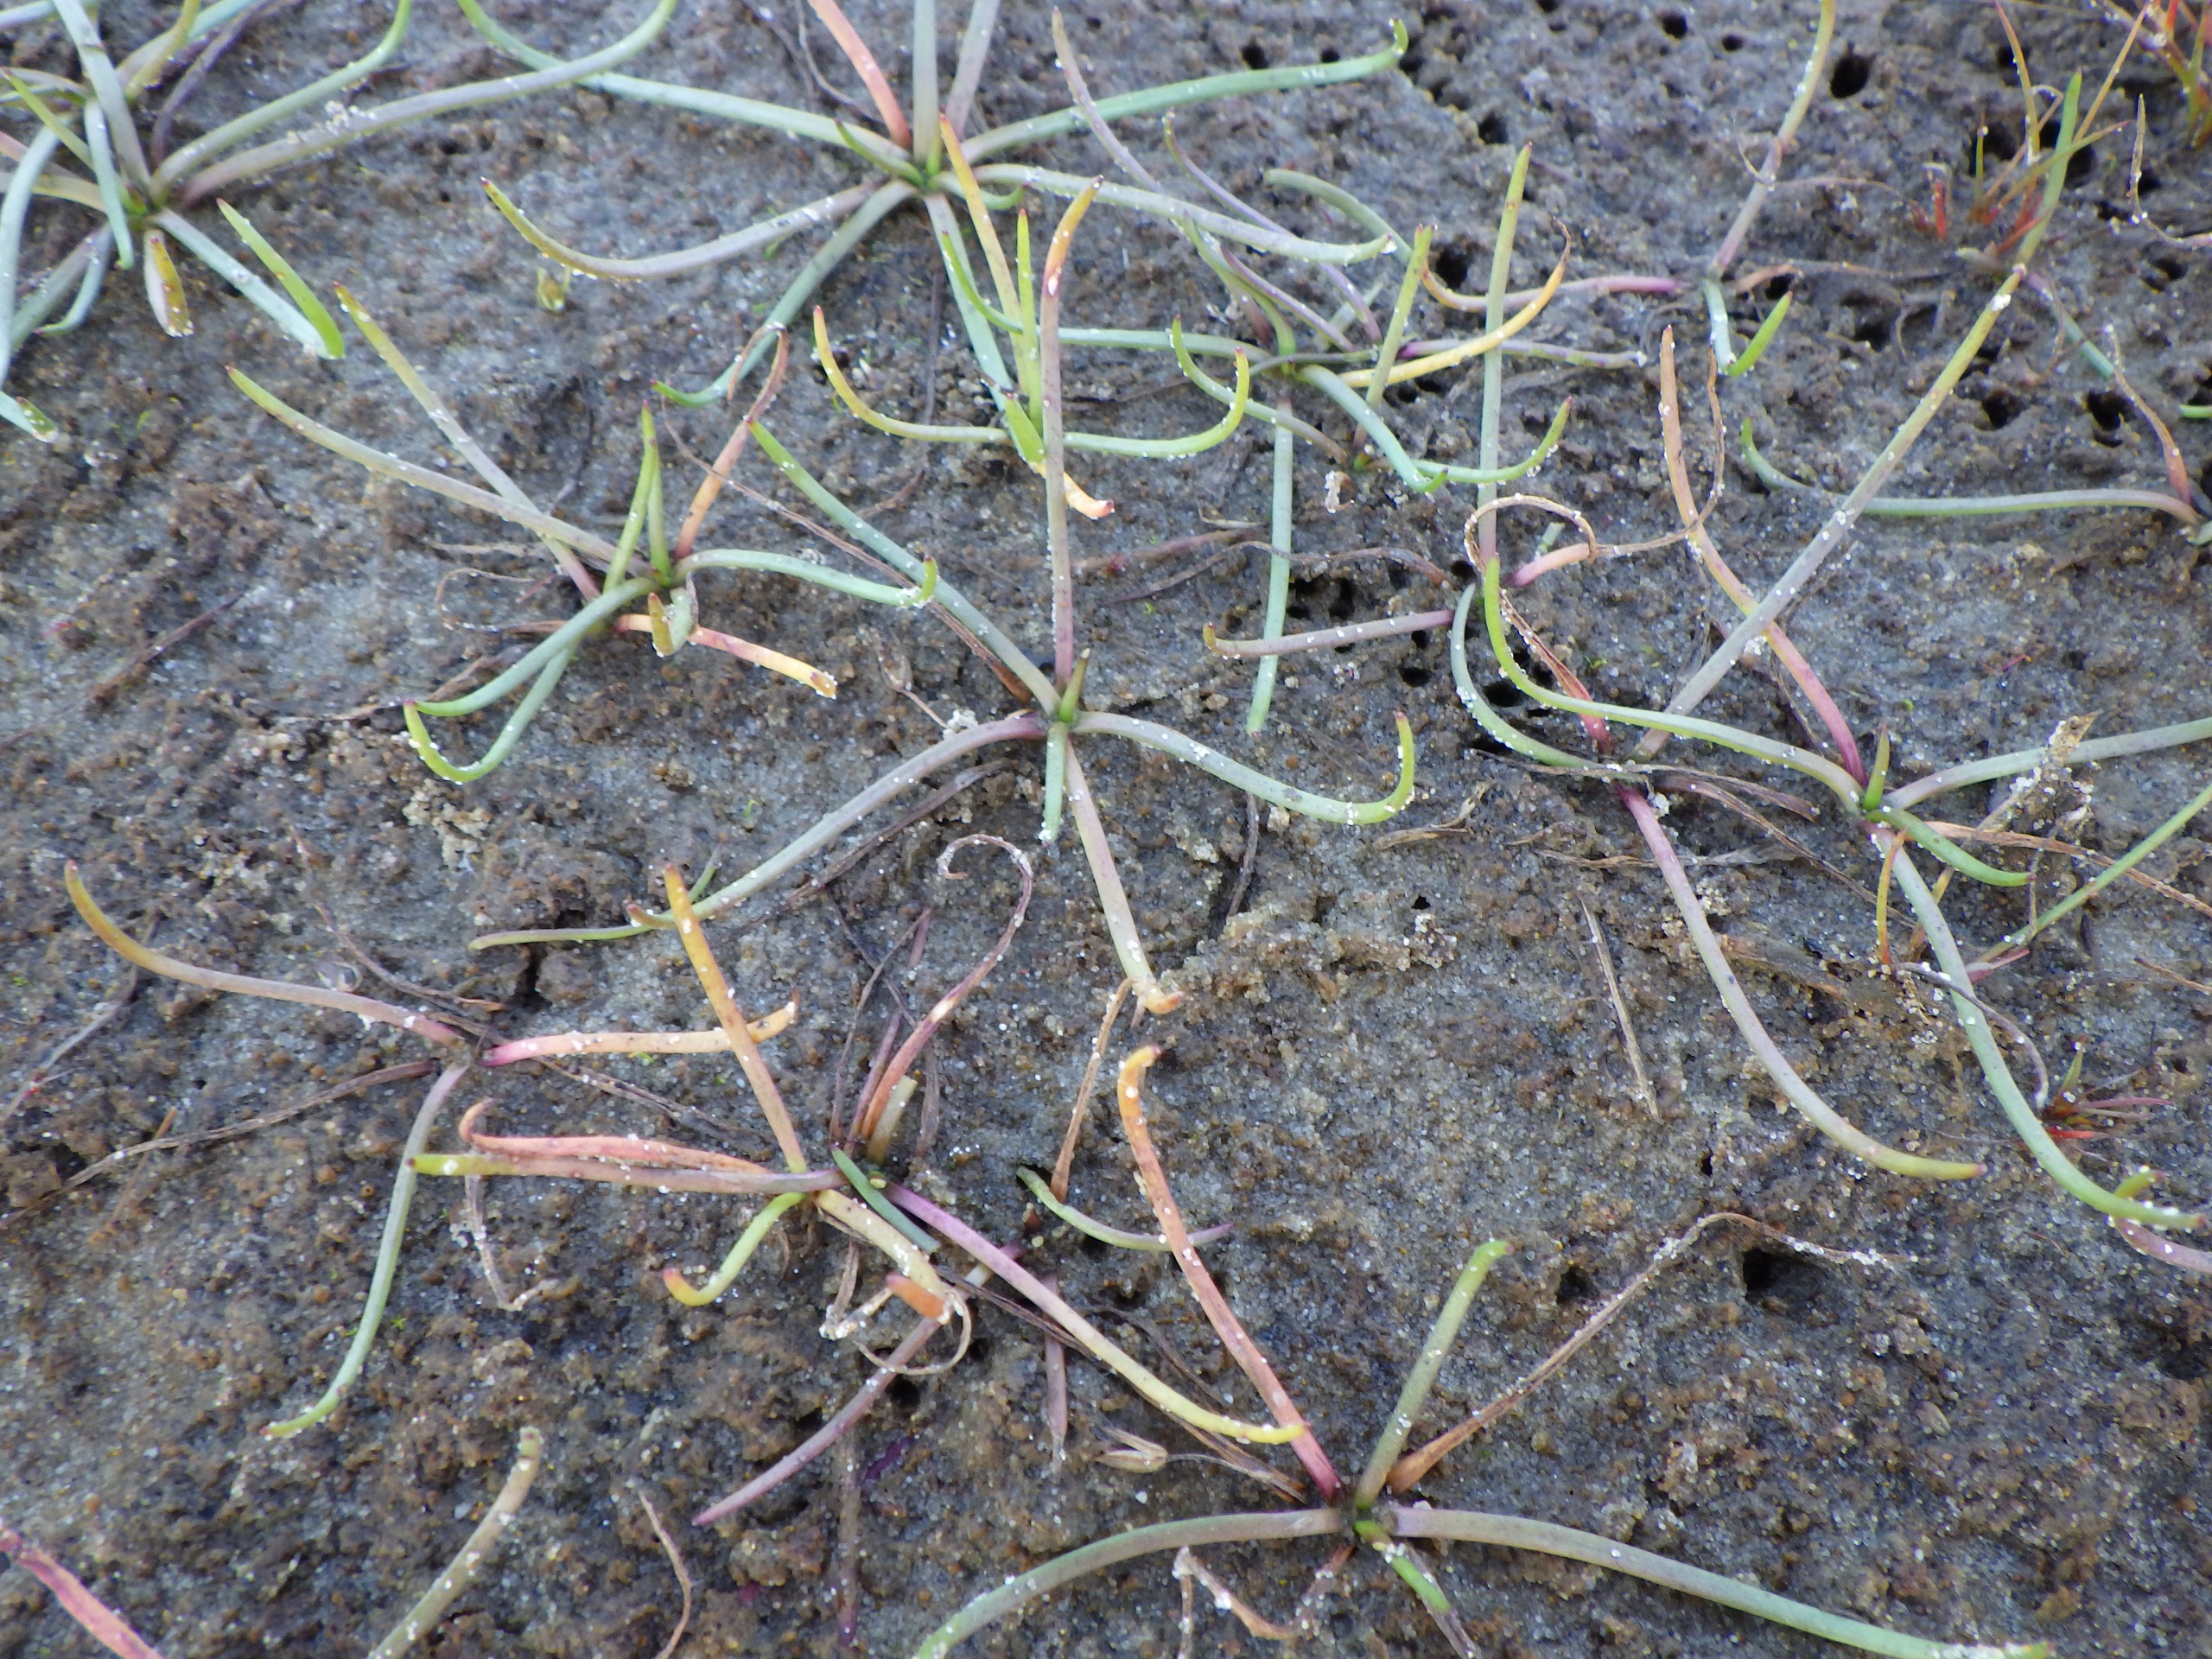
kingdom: Plantae
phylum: Tracheophyta
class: Magnoliopsida
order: Lamiales
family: Plantaginaceae
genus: Littorella
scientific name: Littorella uniflora
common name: Strandbo
